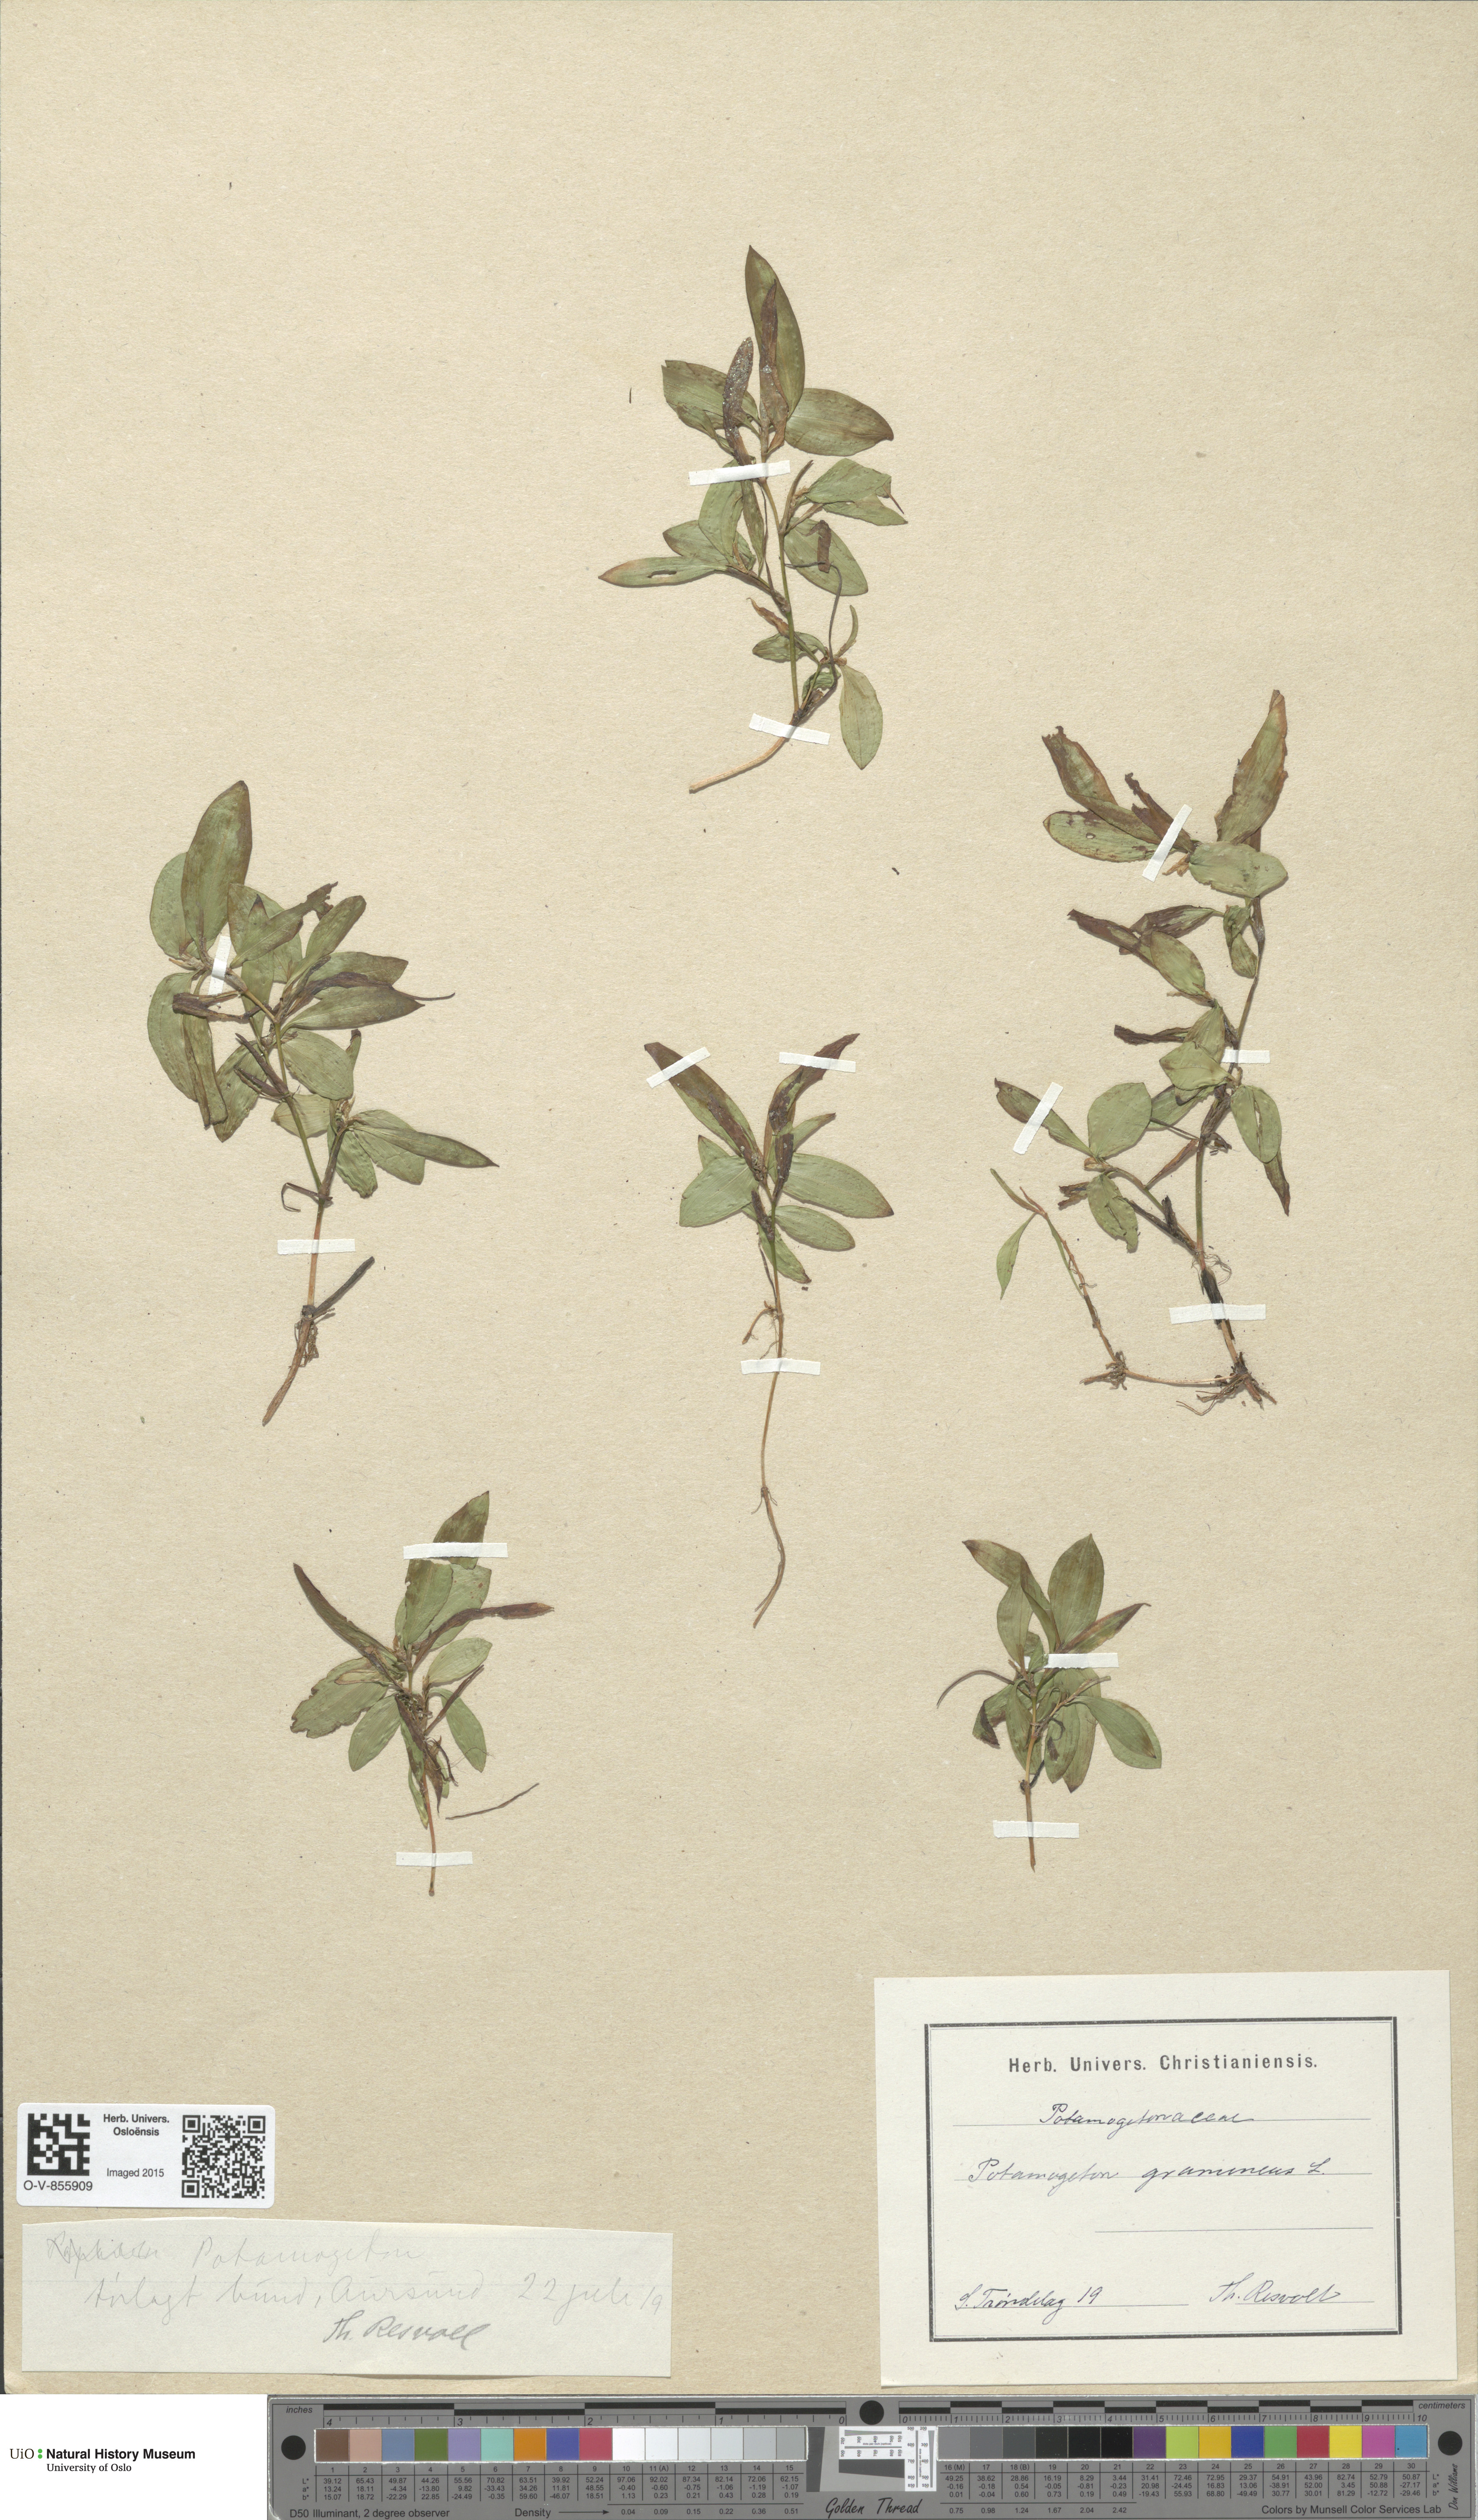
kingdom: Plantae
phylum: Tracheophyta
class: Liliopsida
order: Alismatales
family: Potamogetonaceae
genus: Potamogeton
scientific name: Potamogeton gramineus
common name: Various-leaved pondweed
